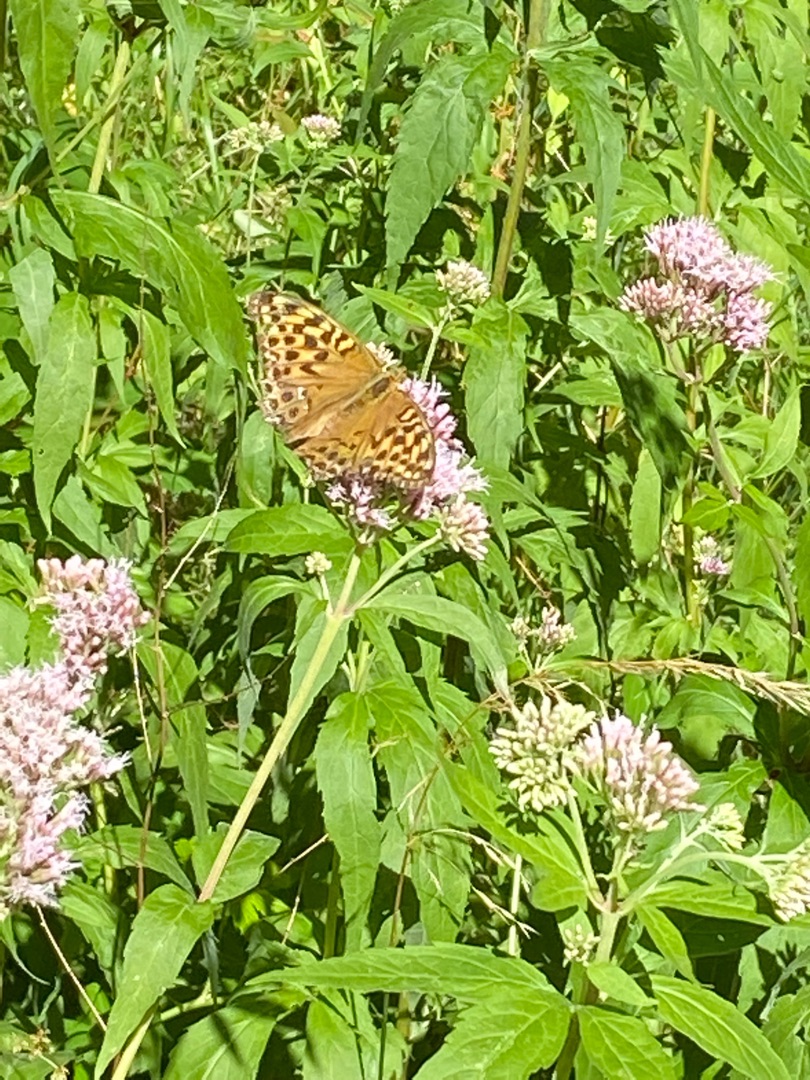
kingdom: Animalia
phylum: Arthropoda
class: Insecta
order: Lepidoptera
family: Nymphalidae
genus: Argynnis
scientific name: Argynnis paphia
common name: Kejserkåbe
